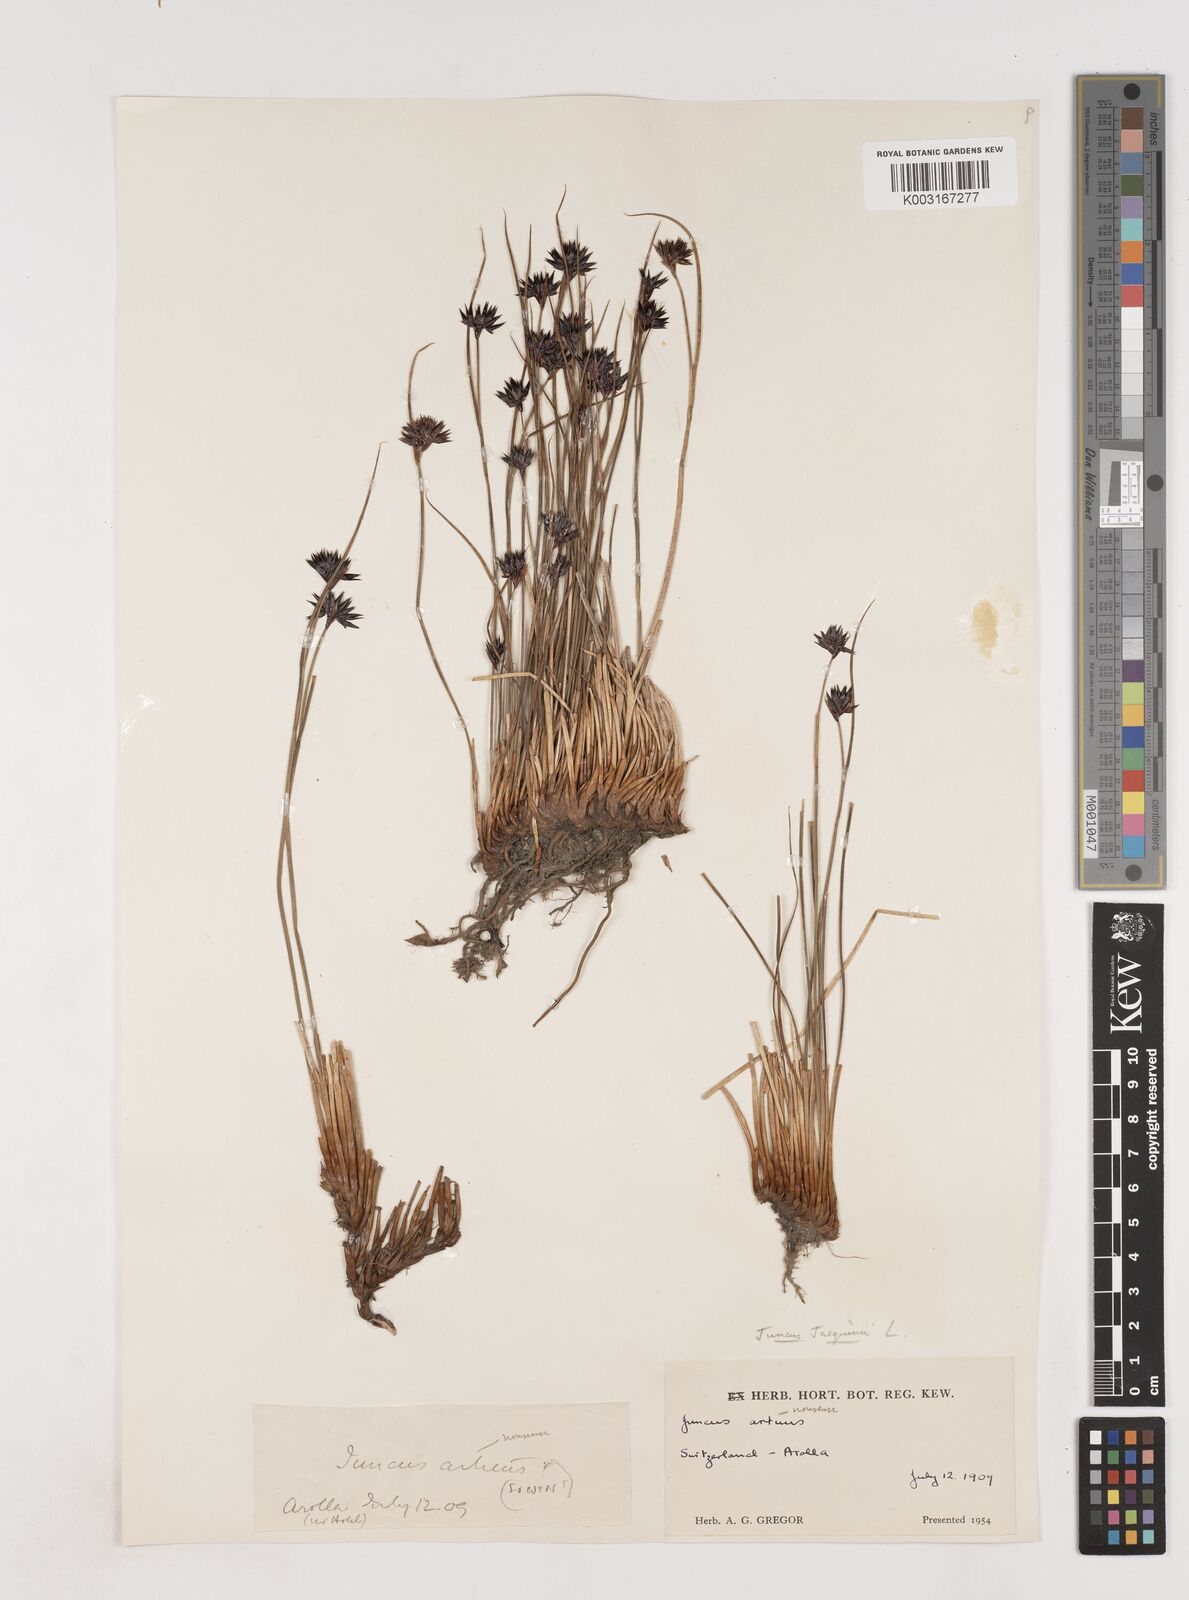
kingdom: Plantae
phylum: Tracheophyta
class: Liliopsida
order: Poales
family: Juncaceae
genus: Juncus
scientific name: Juncus jacquinii
